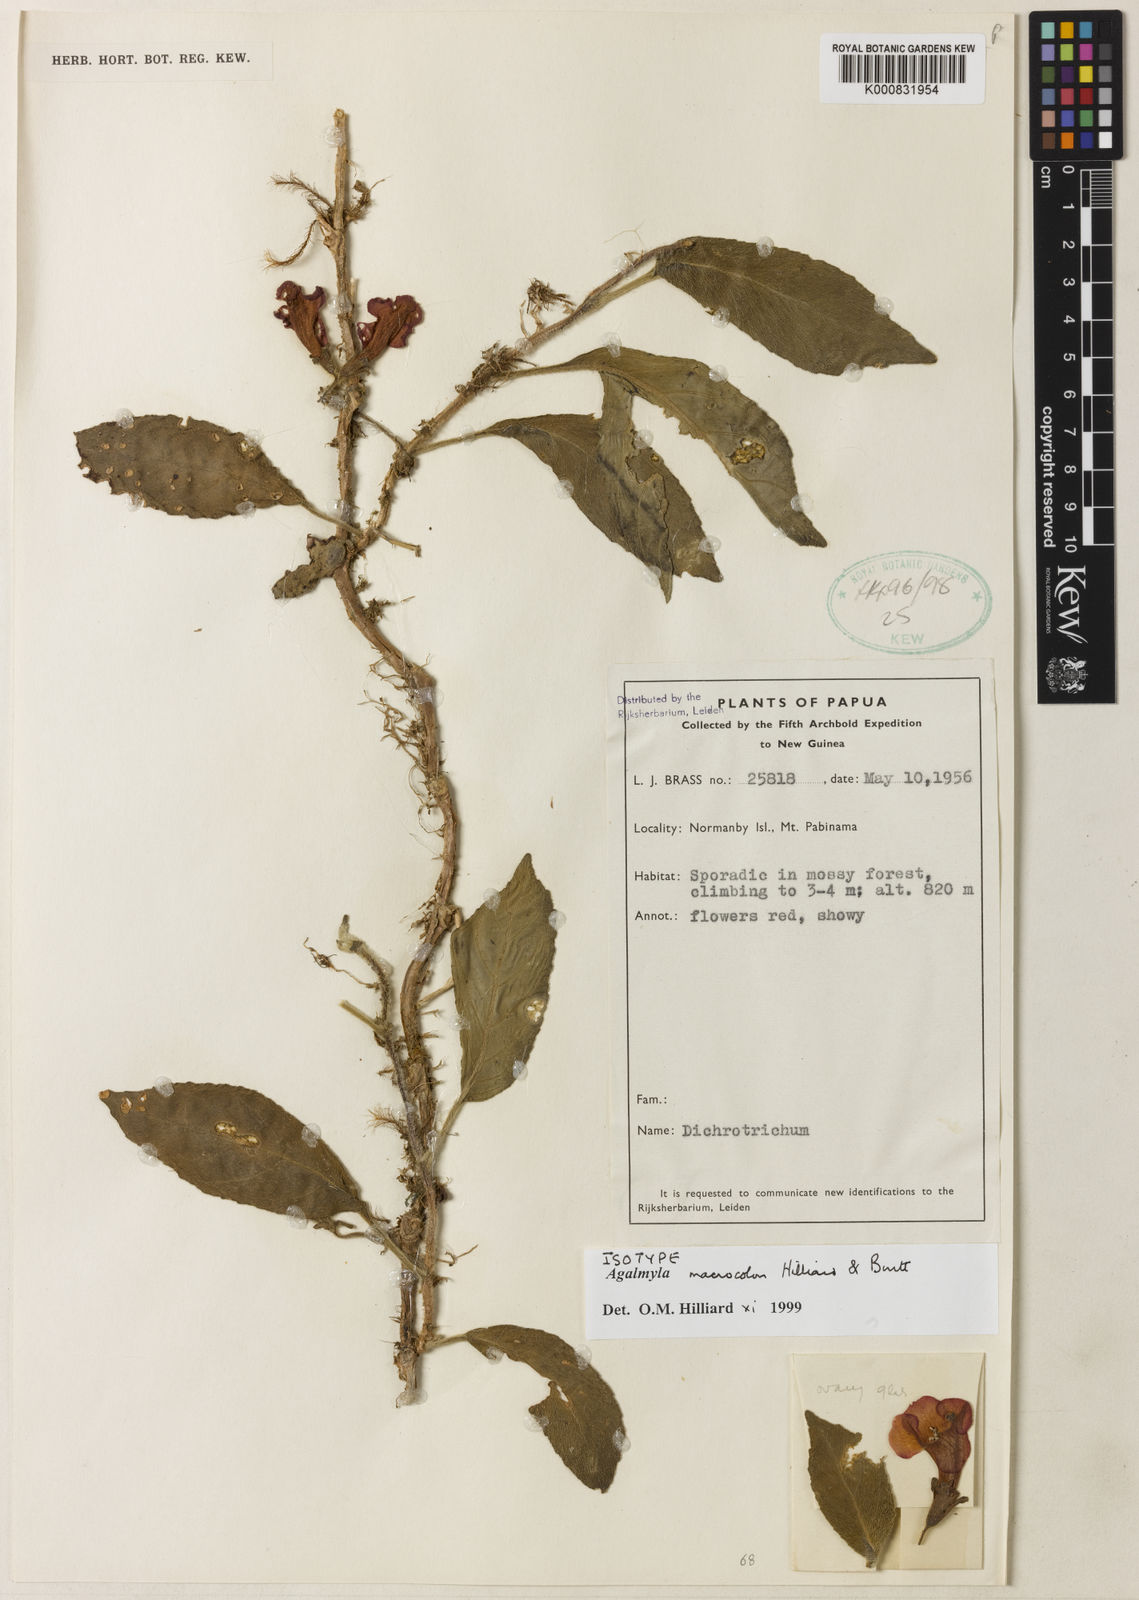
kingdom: Plantae
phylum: Tracheophyta
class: Magnoliopsida
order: Lamiales
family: Gesneriaceae
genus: Agalmyla
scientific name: Agalmyla macrocolon
